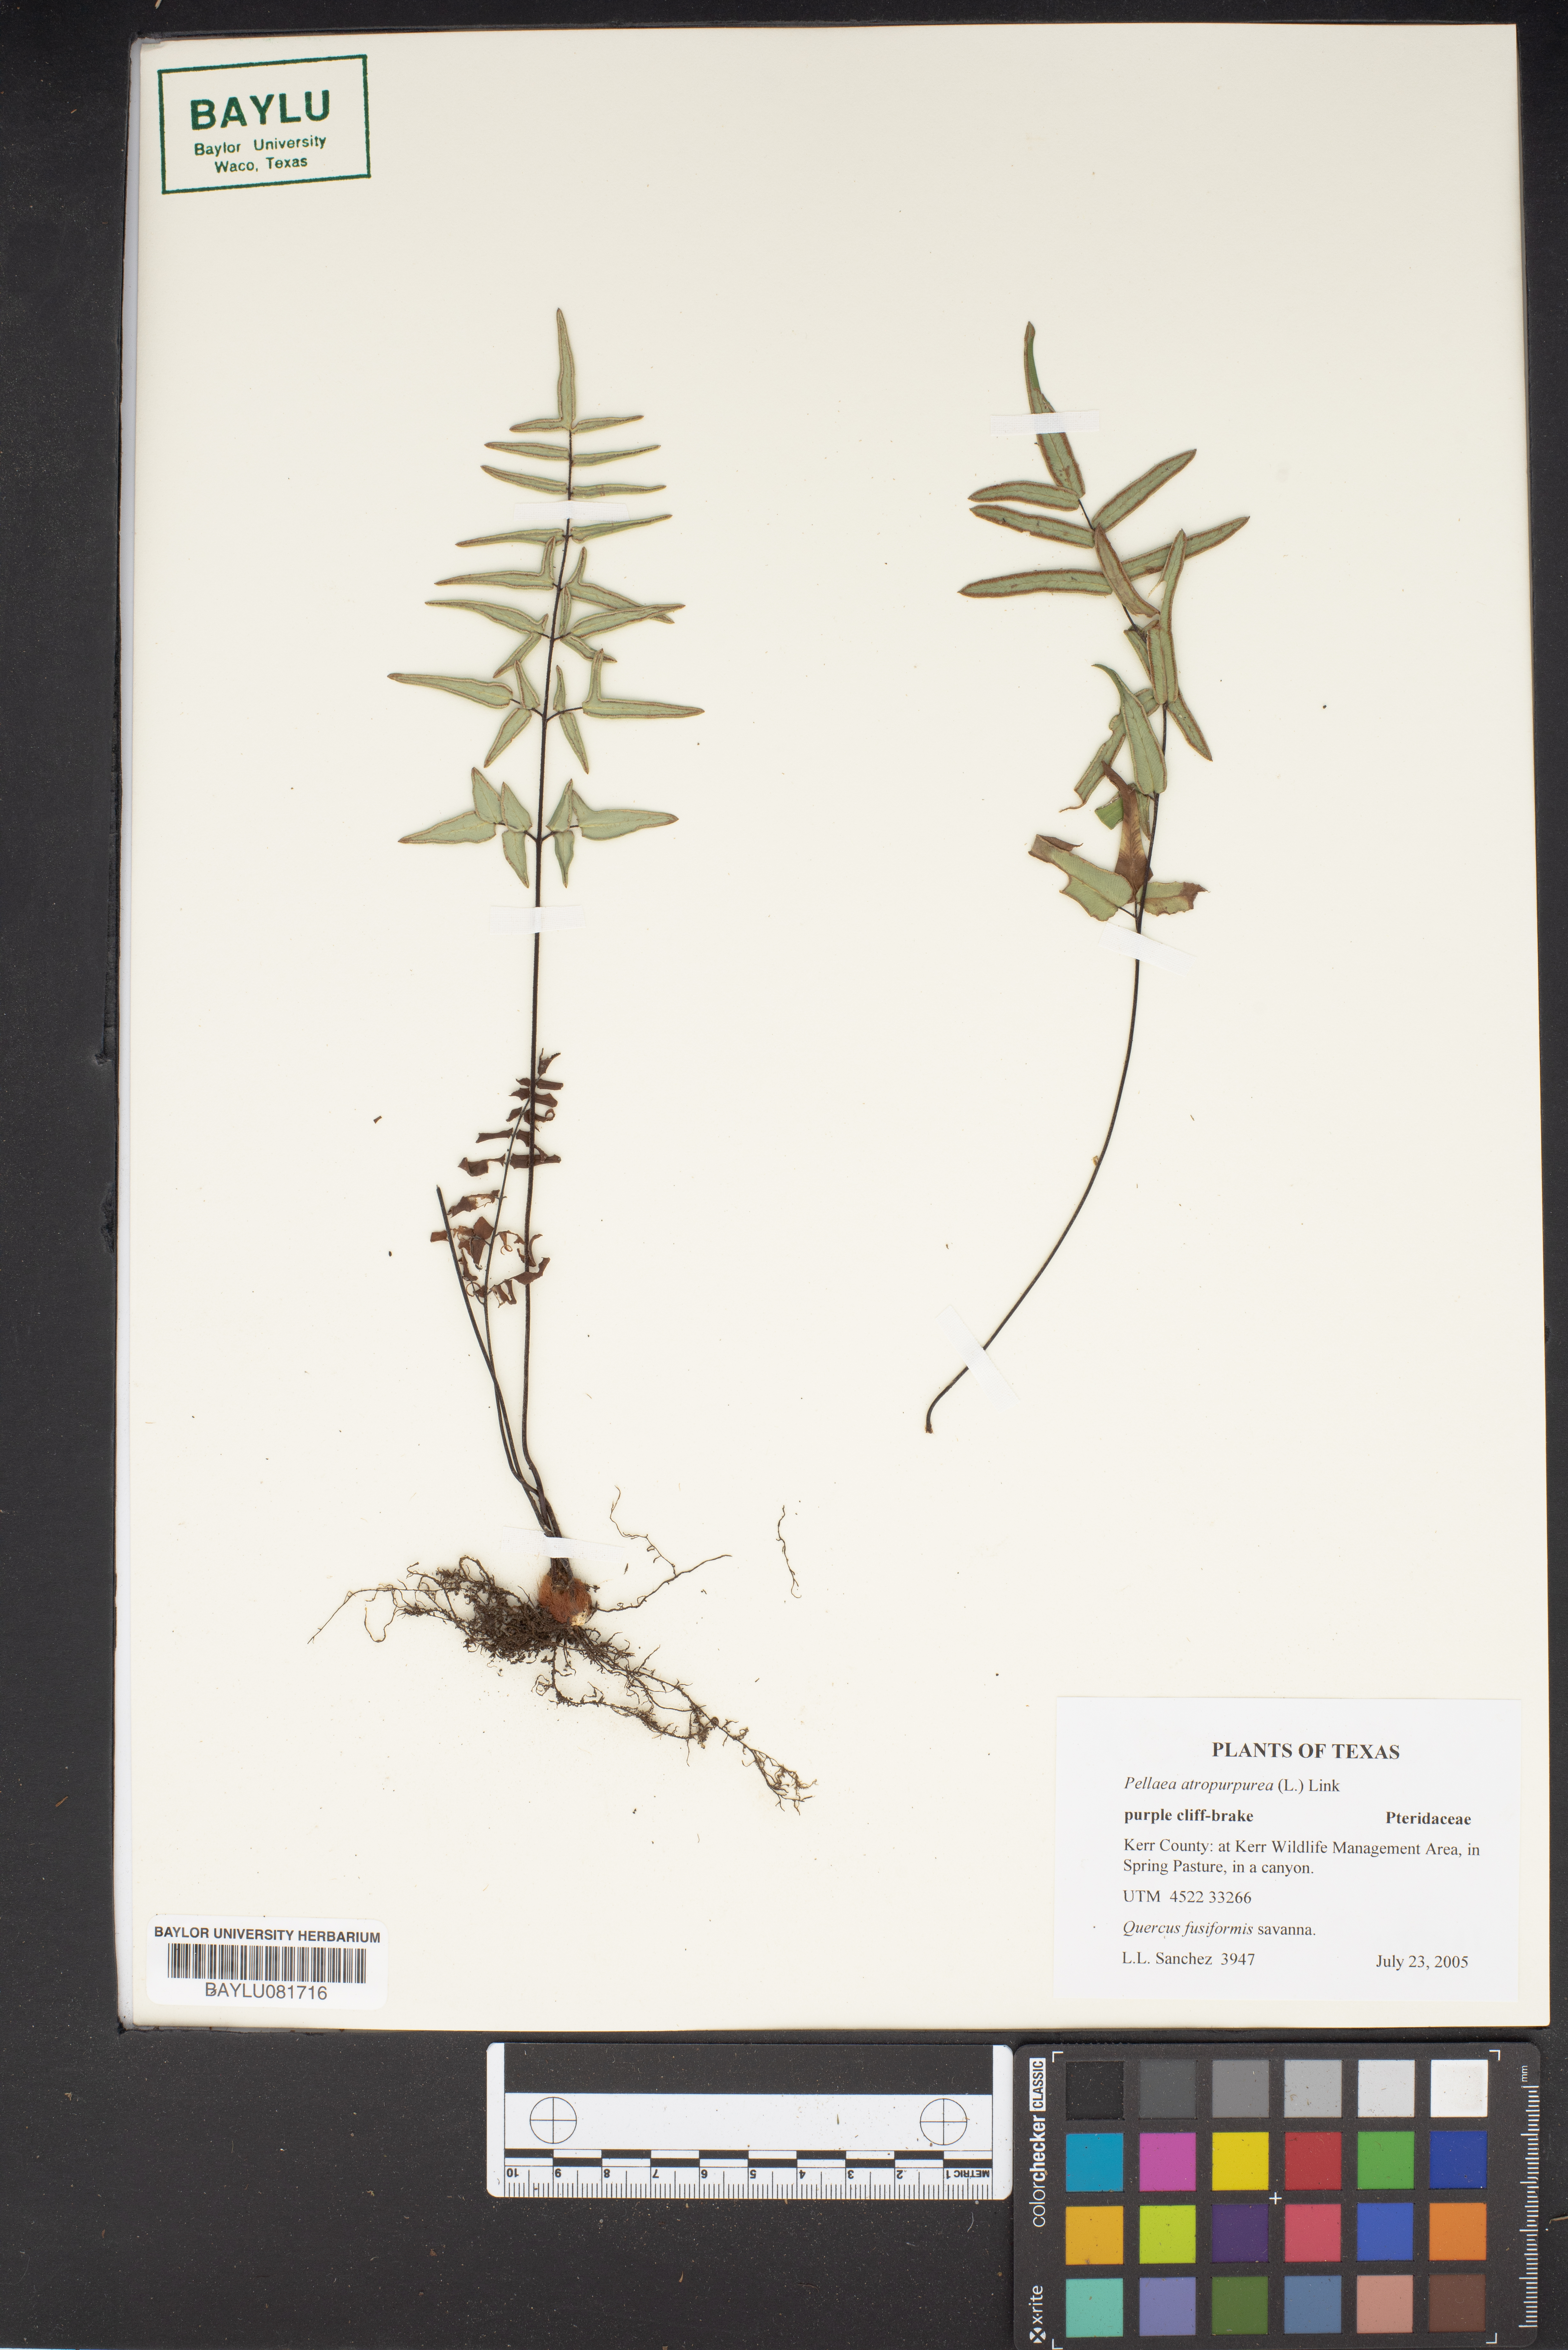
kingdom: Plantae
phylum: Tracheophyta
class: Polypodiopsida
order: Polypodiales
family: Pteridaceae
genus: Pellaea
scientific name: Pellaea atropurpurea
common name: Hairy cliffbrake
